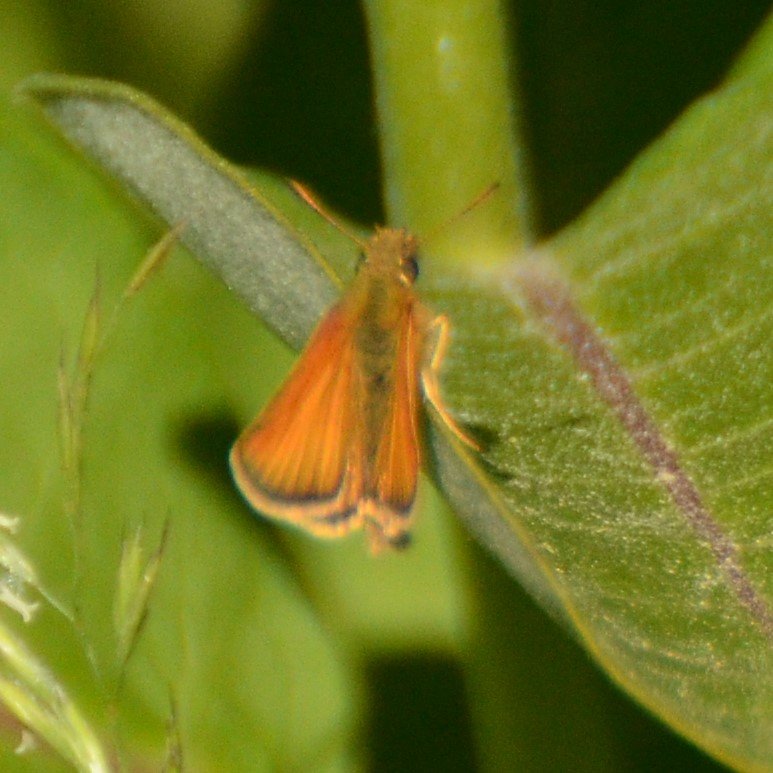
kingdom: Animalia
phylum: Arthropoda
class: Insecta
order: Lepidoptera
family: Hesperiidae
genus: Thymelicus
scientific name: Thymelicus lineola
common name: European Skipper
